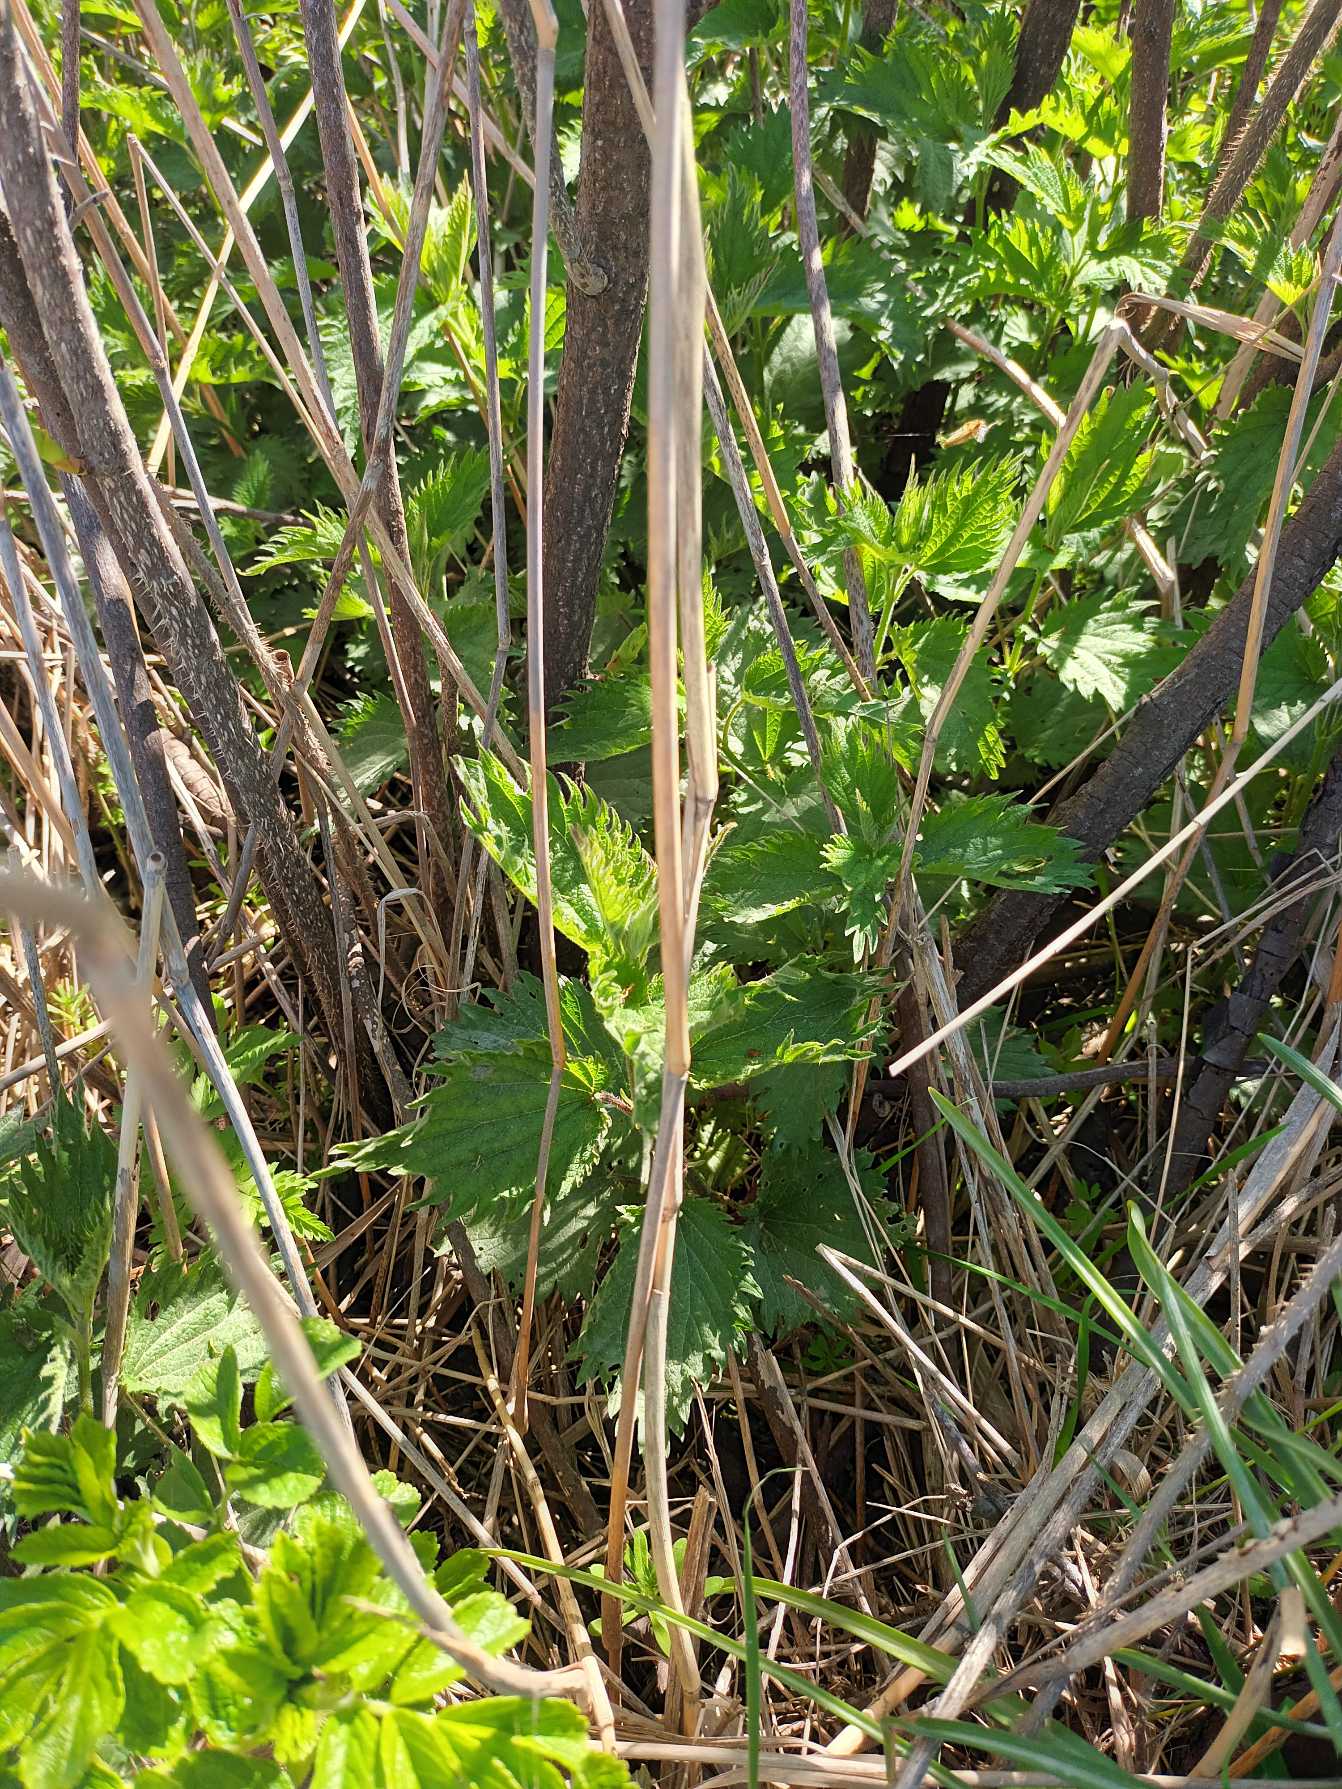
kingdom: Plantae
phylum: Tracheophyta
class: Magnoliopsida
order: Rosales
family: Urticaceae
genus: Urtica
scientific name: Urtica dioica
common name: Stor nælde
